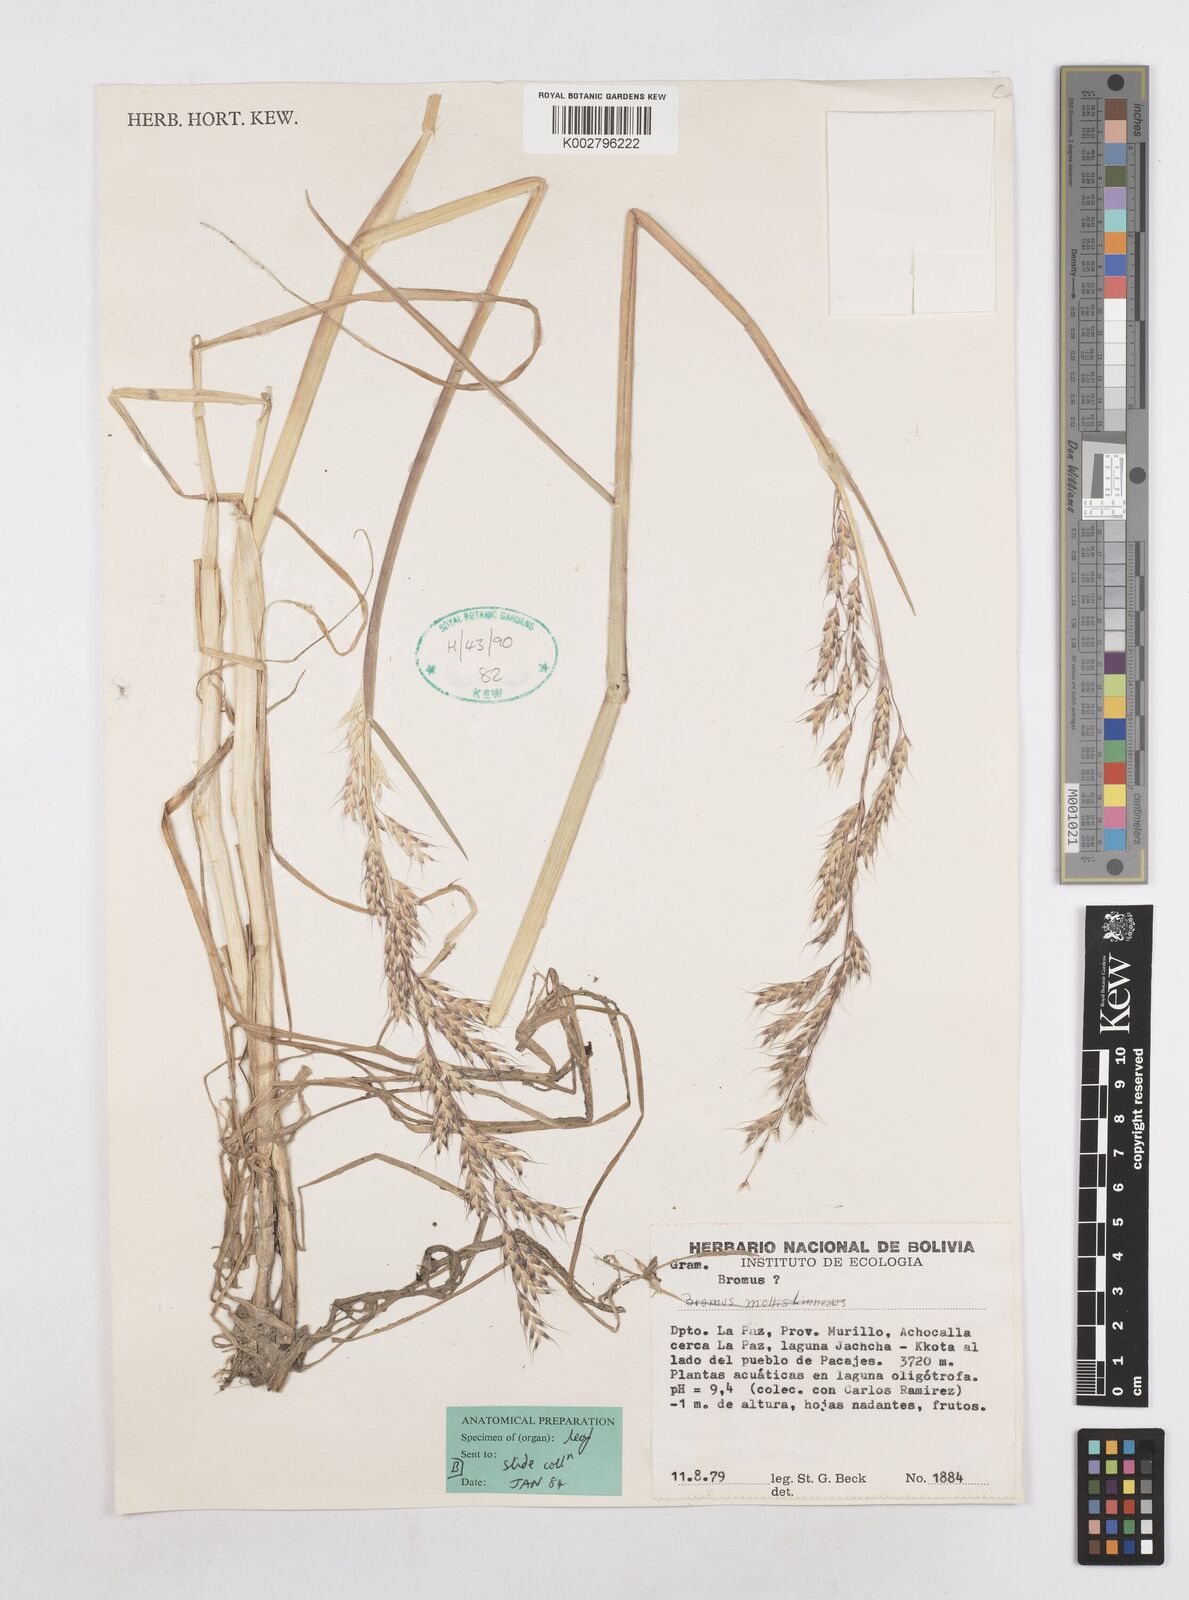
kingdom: Plantae
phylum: Tracheophyta
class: Liliopsida
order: Poales
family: Poaceae
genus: Amphibromus
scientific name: Amphibromus scabrivalvis
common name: Swamp wallaby grass
